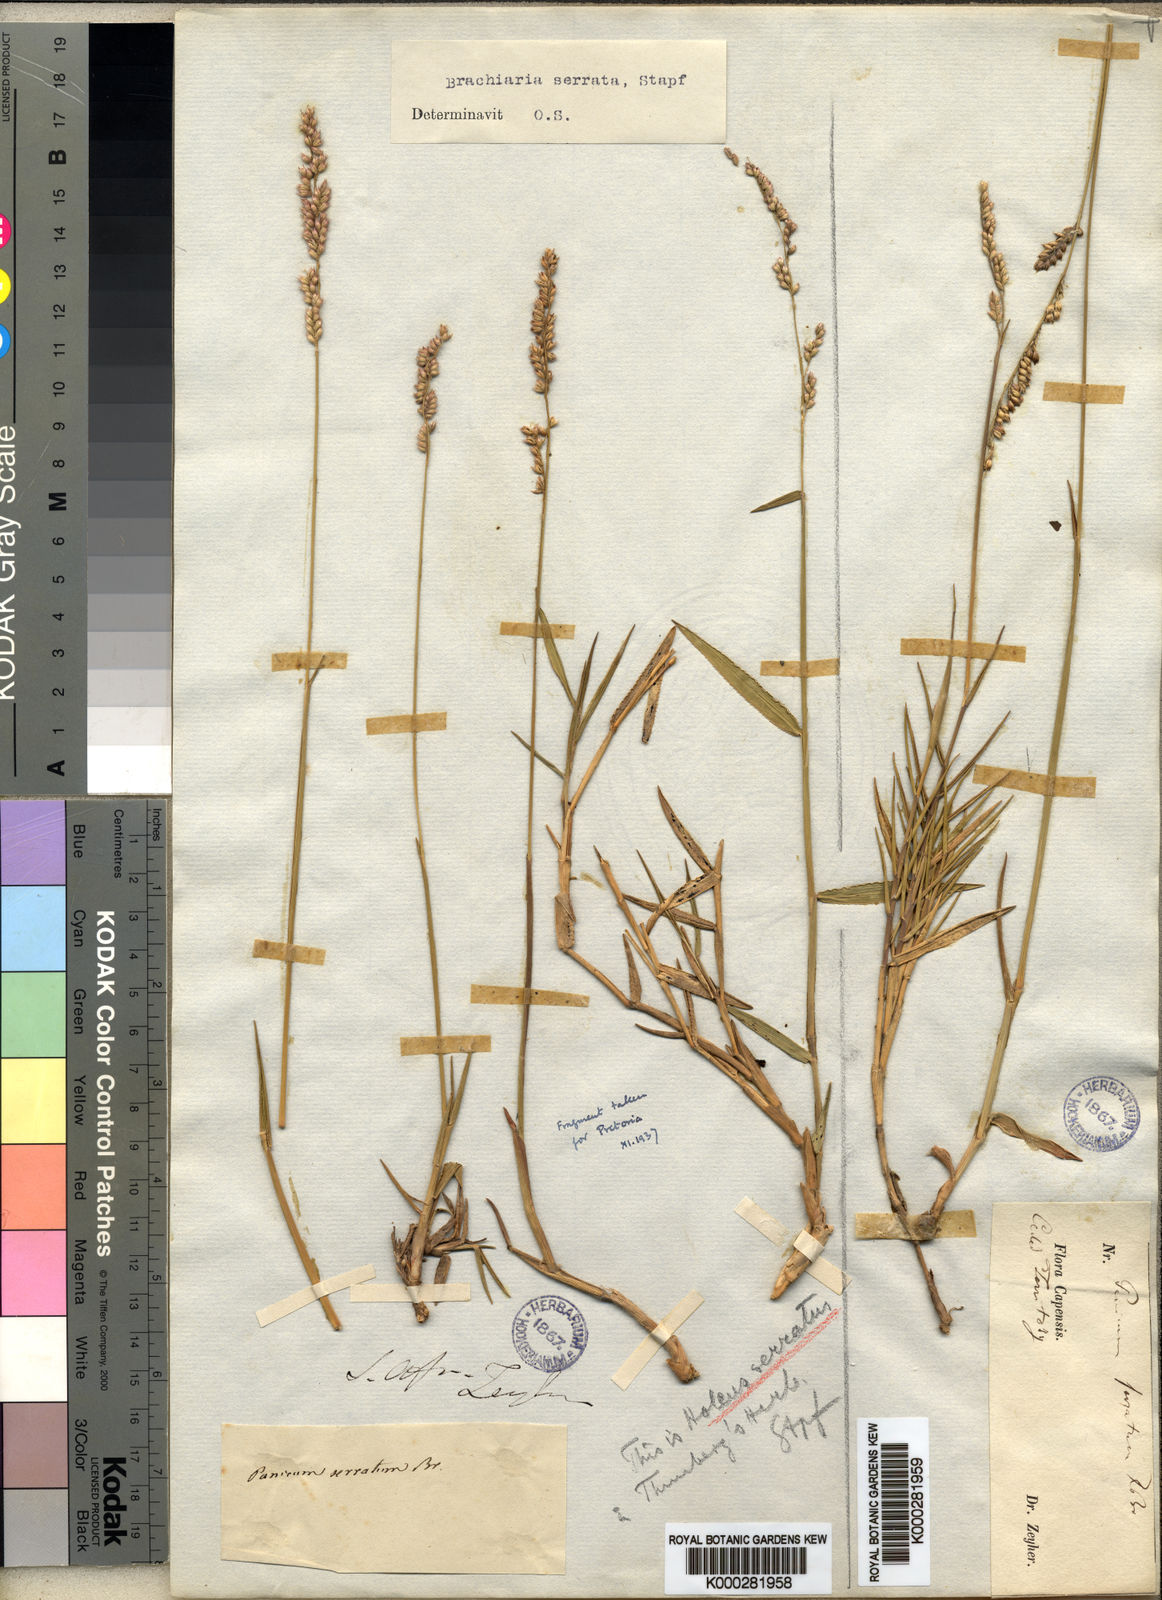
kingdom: Plantae
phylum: Tracheophyta
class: Liliopsida
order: Poales
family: Poaceae
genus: Urochloa
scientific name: Urochloa serrata
